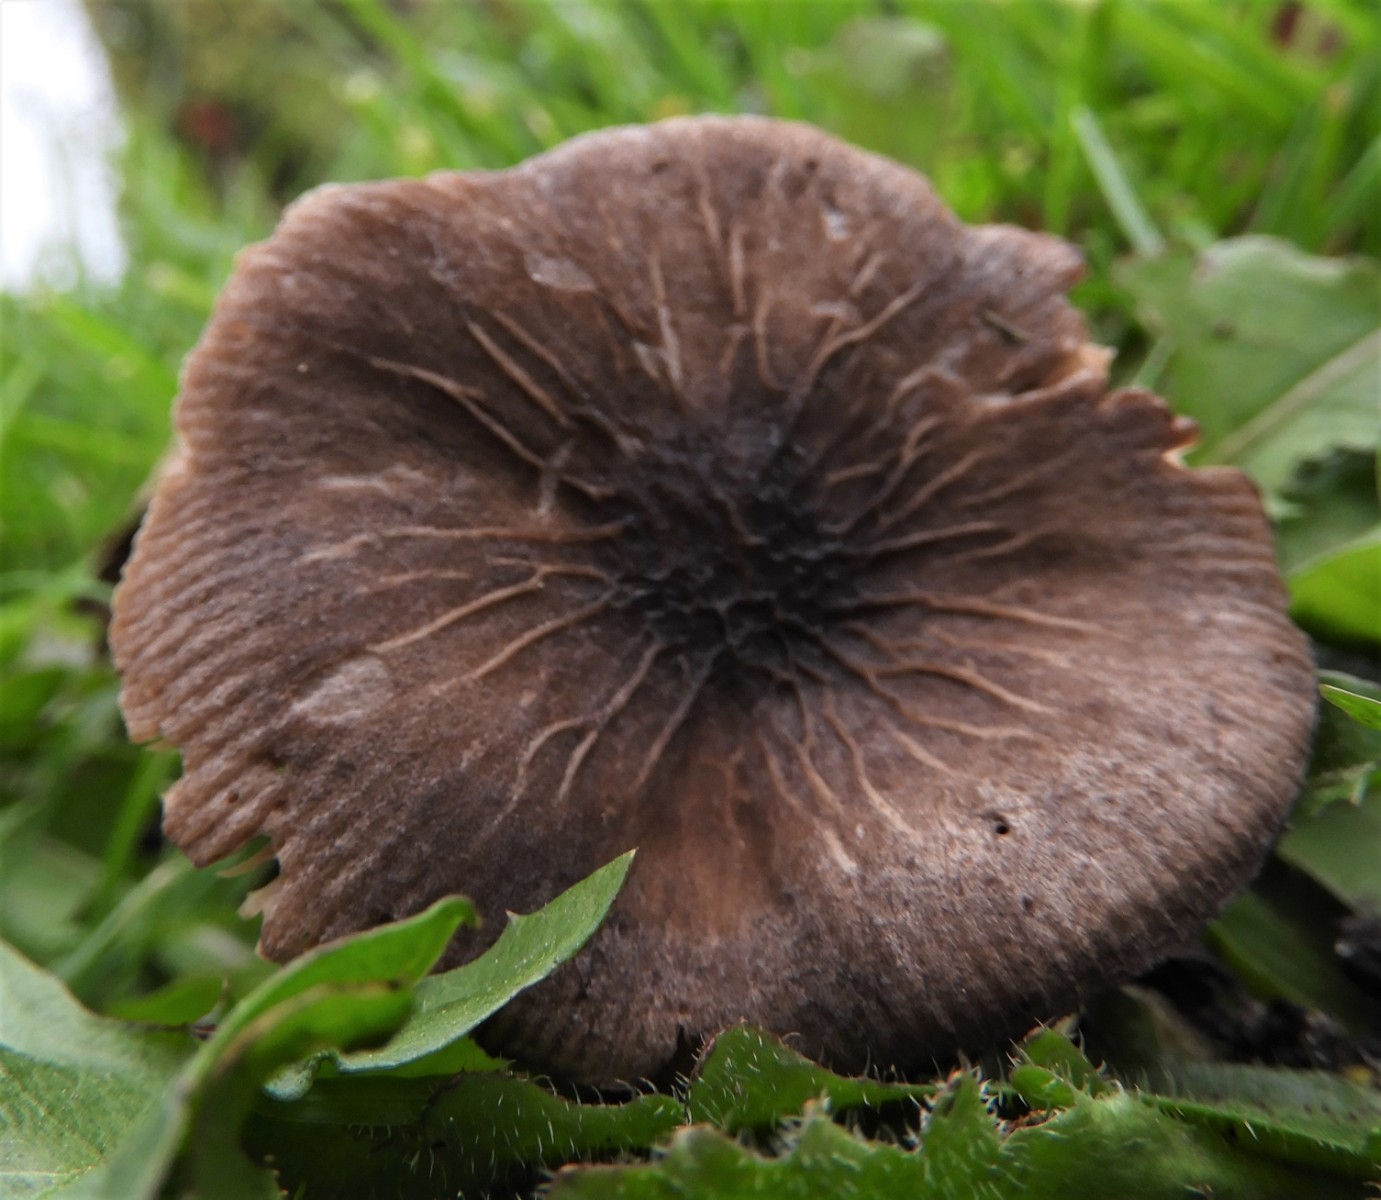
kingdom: Fungi
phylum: Basidiomycota
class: Agaricomycetes
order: Agaricales
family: Pluteaceae
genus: Pluteus
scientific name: Pluteus
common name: gråstokket skærmhat
